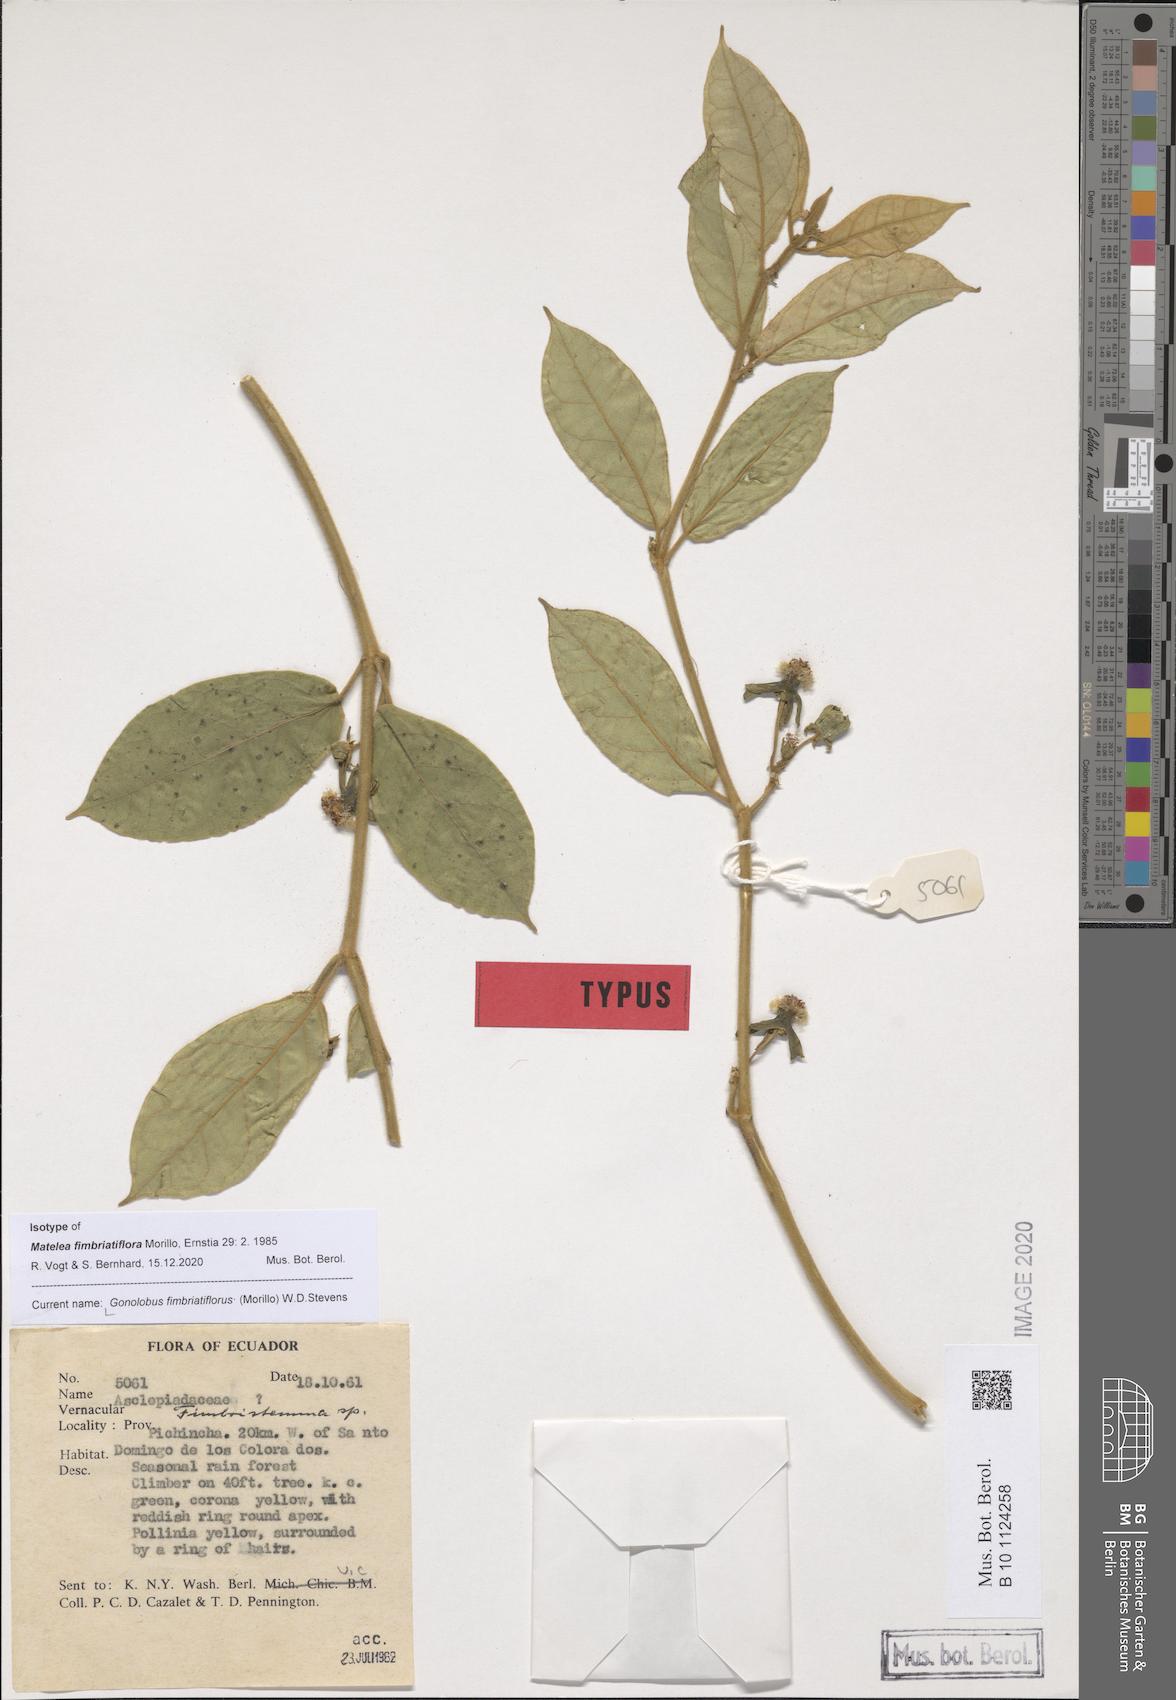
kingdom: Plantae
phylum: Tracheophyta
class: Magnoliopsida
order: Gentianales
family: Apocynaceae
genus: Gonolobus
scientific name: Gonolobus fimbriatiflorus
